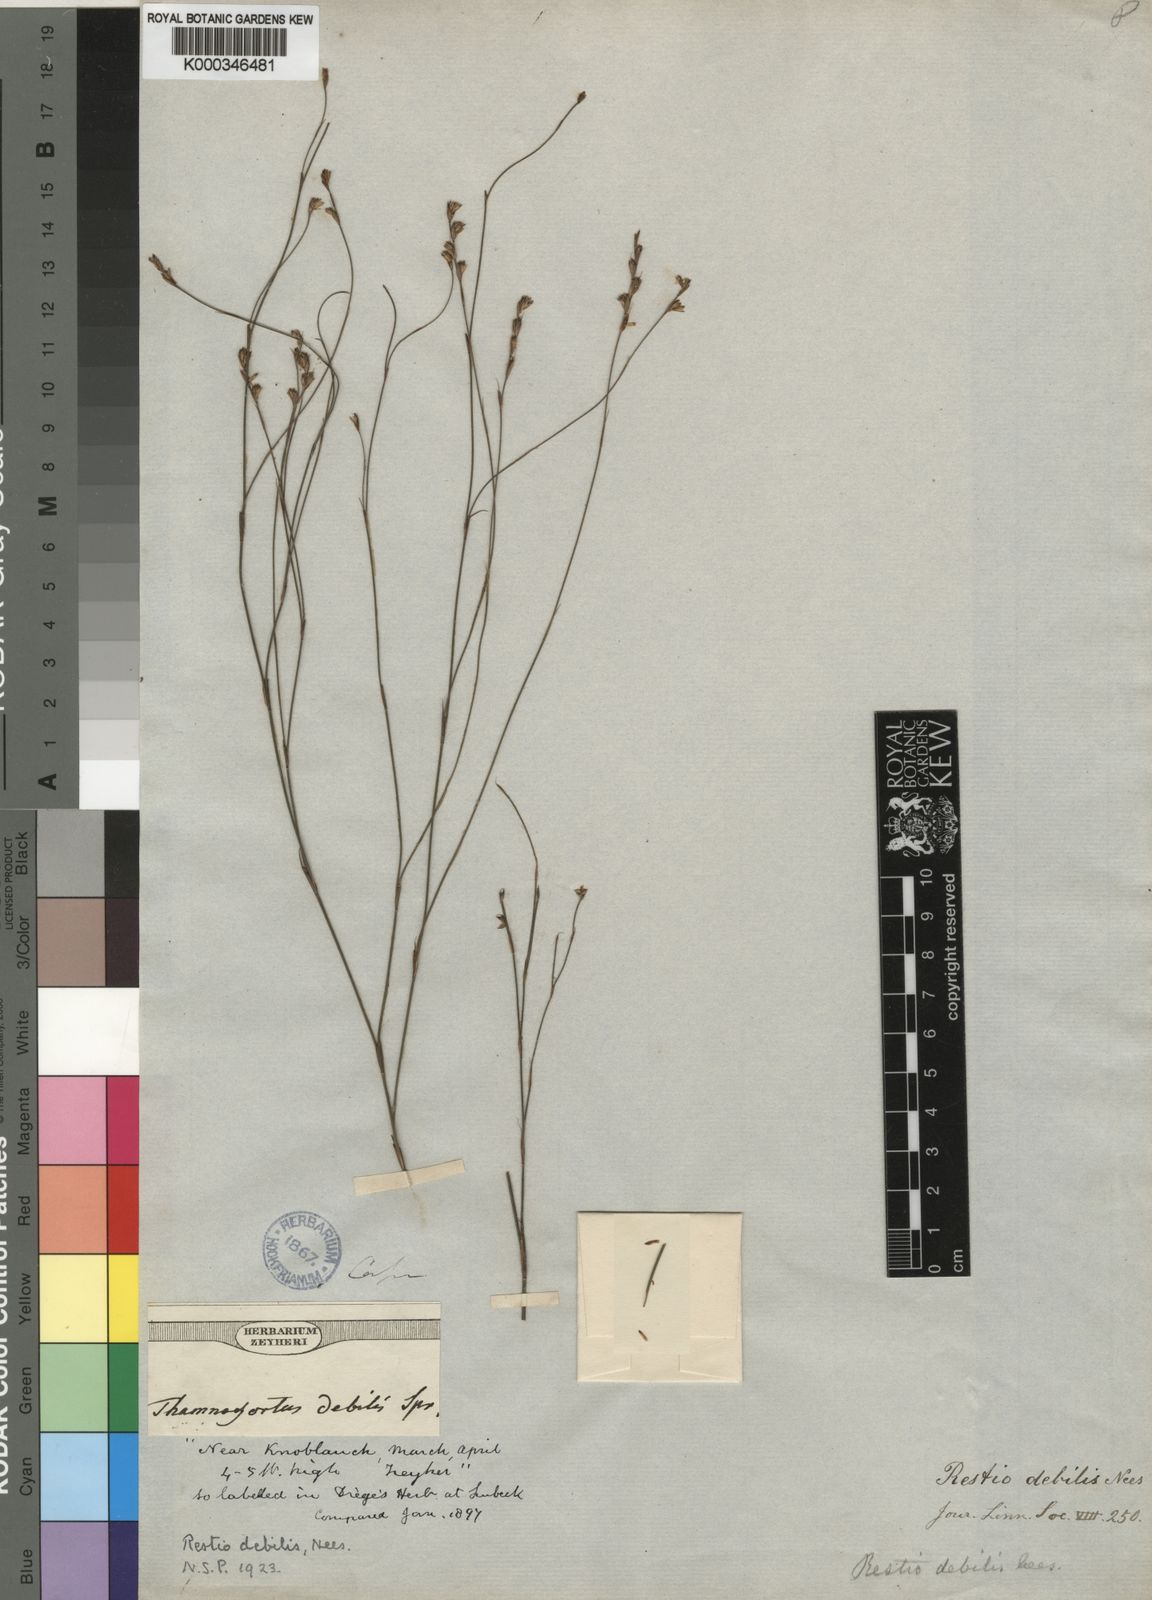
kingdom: Plantae
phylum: Tracheophyta
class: Liliopsida
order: Poales
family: Restionaceae
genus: Restio
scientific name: Restio debilis
